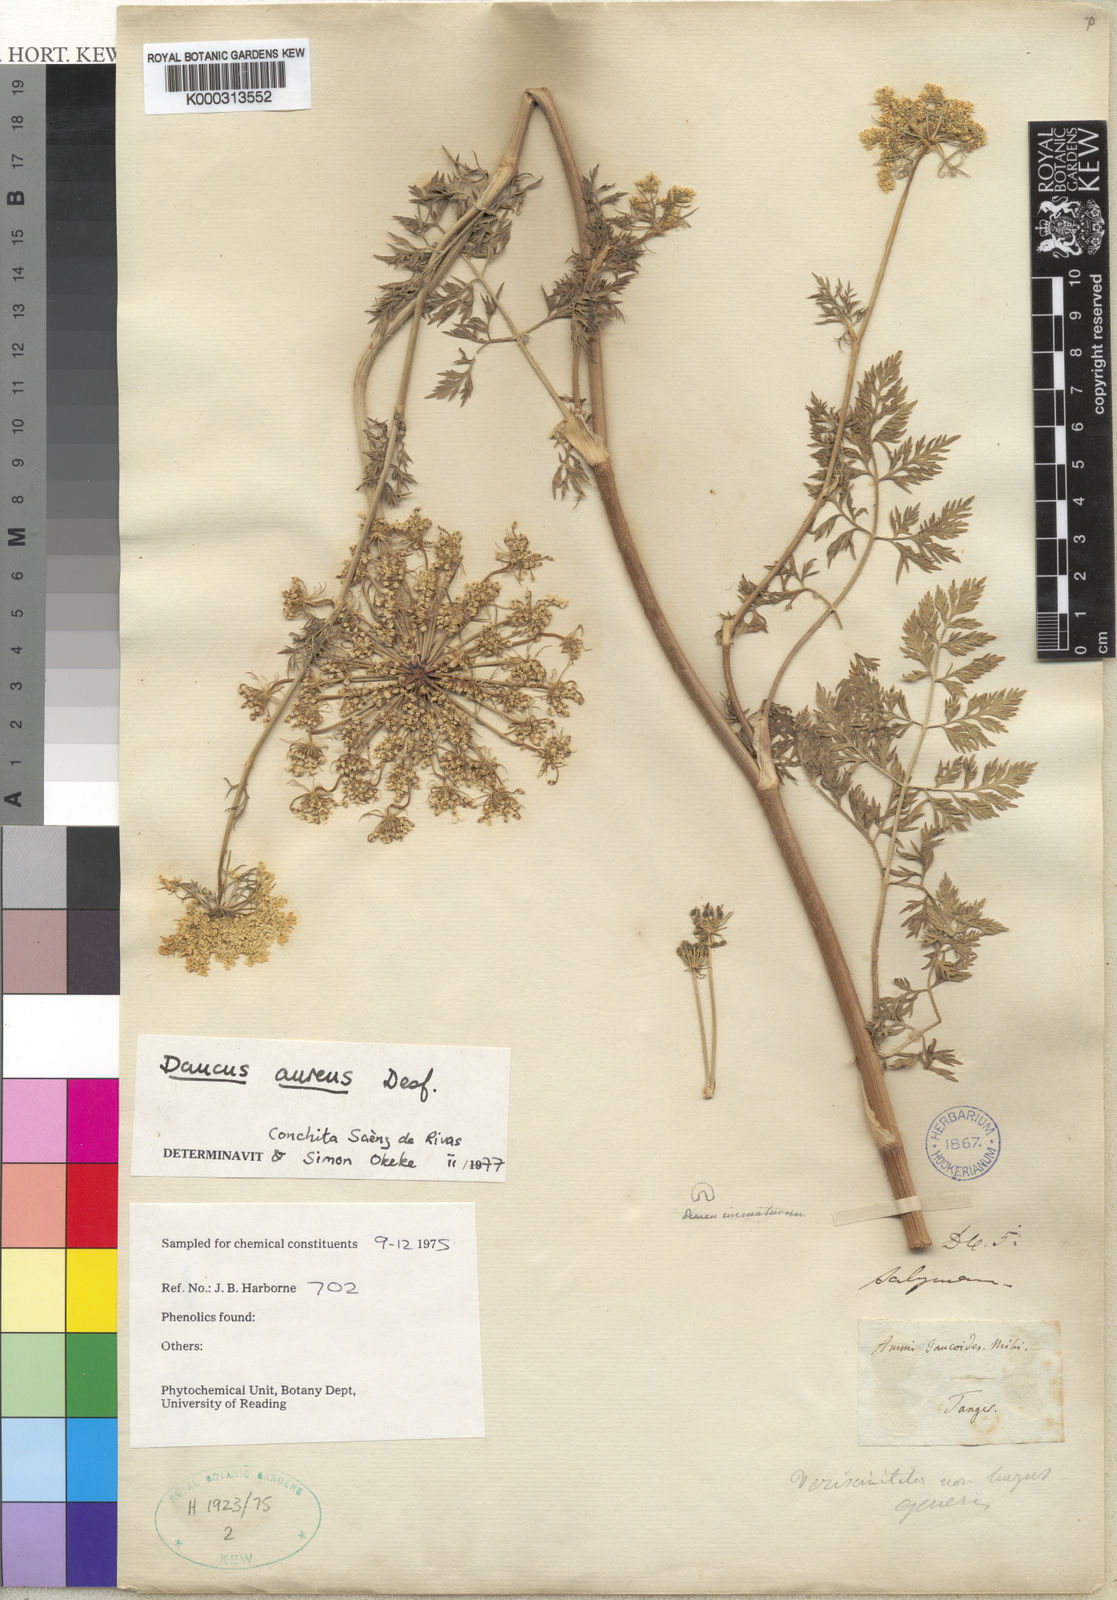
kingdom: Plantae
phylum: Tracheophyta
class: Magnoliopsida
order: Apiales
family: Apiaceae
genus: Daucus
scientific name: Daucus aureus
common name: Golden carrot
